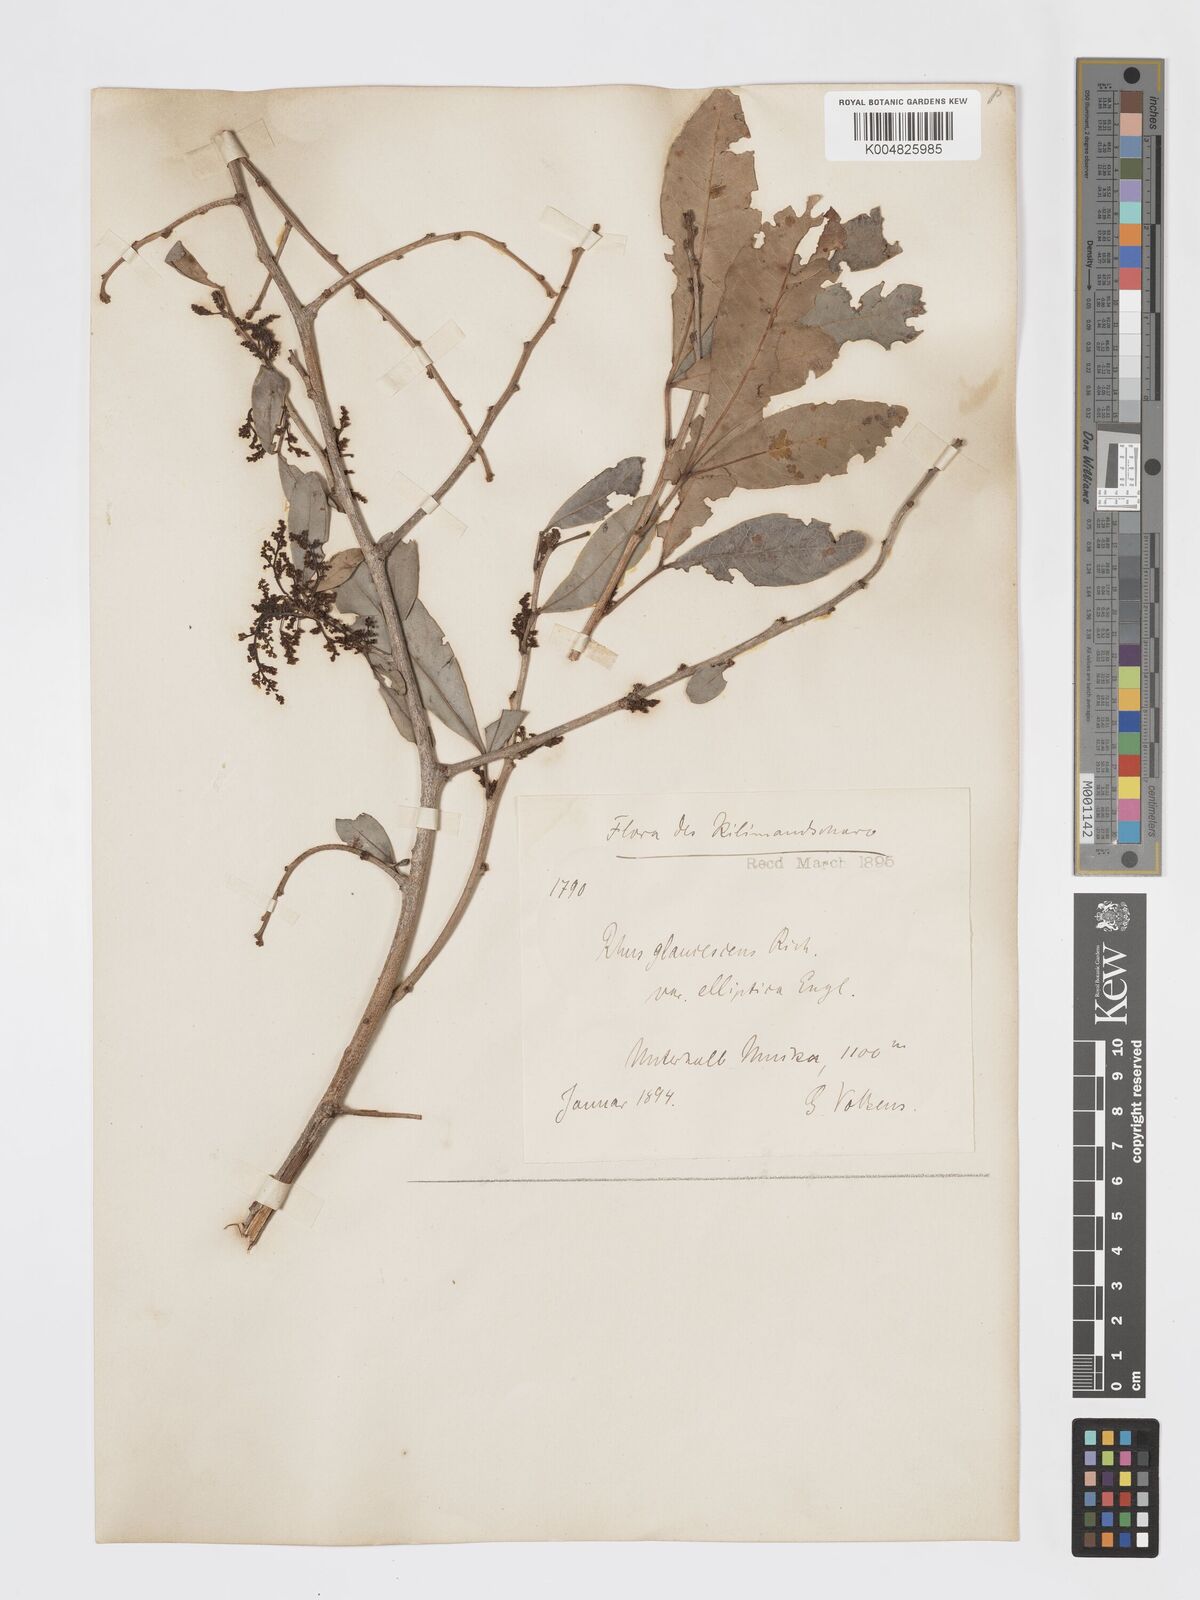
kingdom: Plantae
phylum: Tracheophyta
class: Magnoliopsida
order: Sapindales
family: Anacardiaceae
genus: Searsia
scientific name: Searsia natalensis
